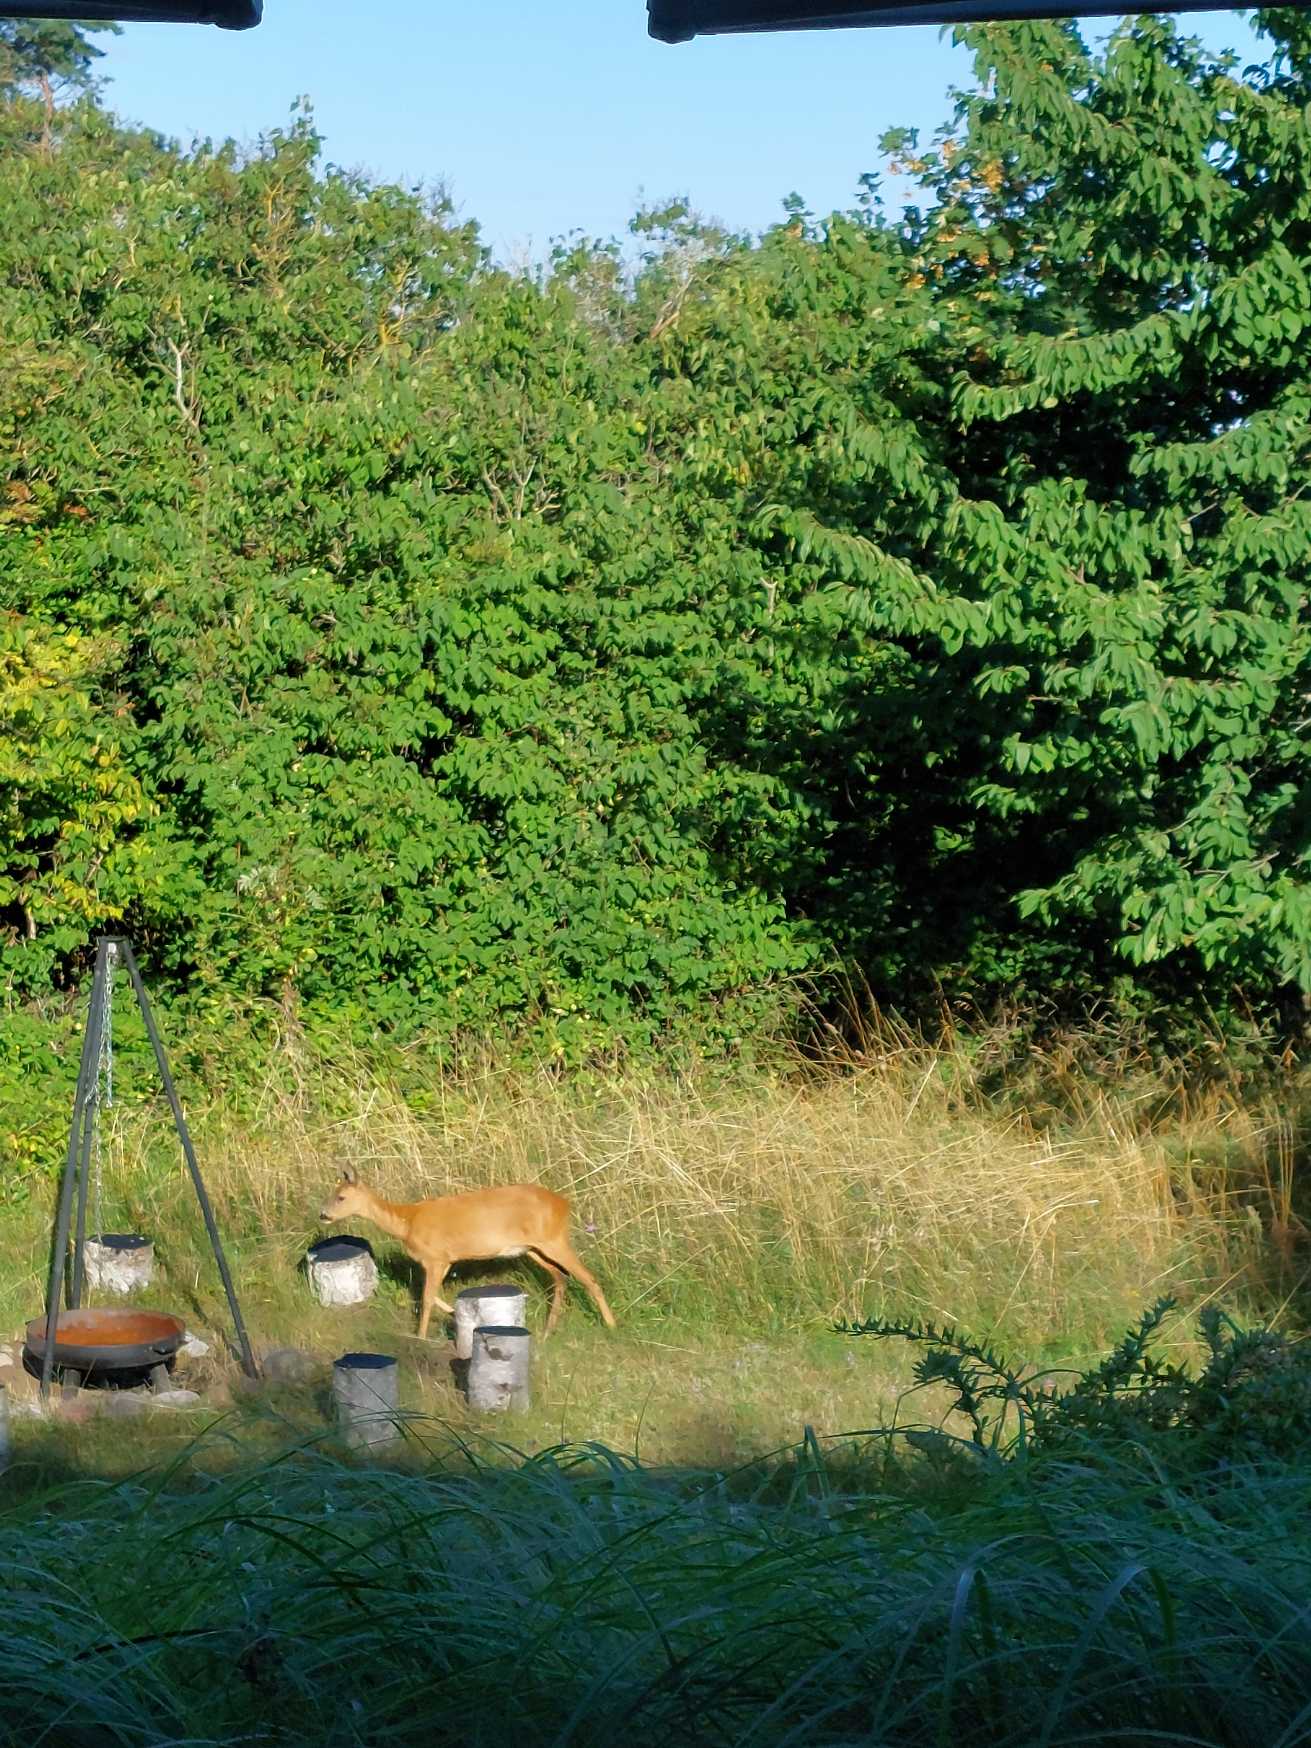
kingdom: Animalia
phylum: Chordata
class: Mammalia
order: Artiodactyla
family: Cervidae
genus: Capreolus
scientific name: Capreolus capreolus
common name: Rådyr
